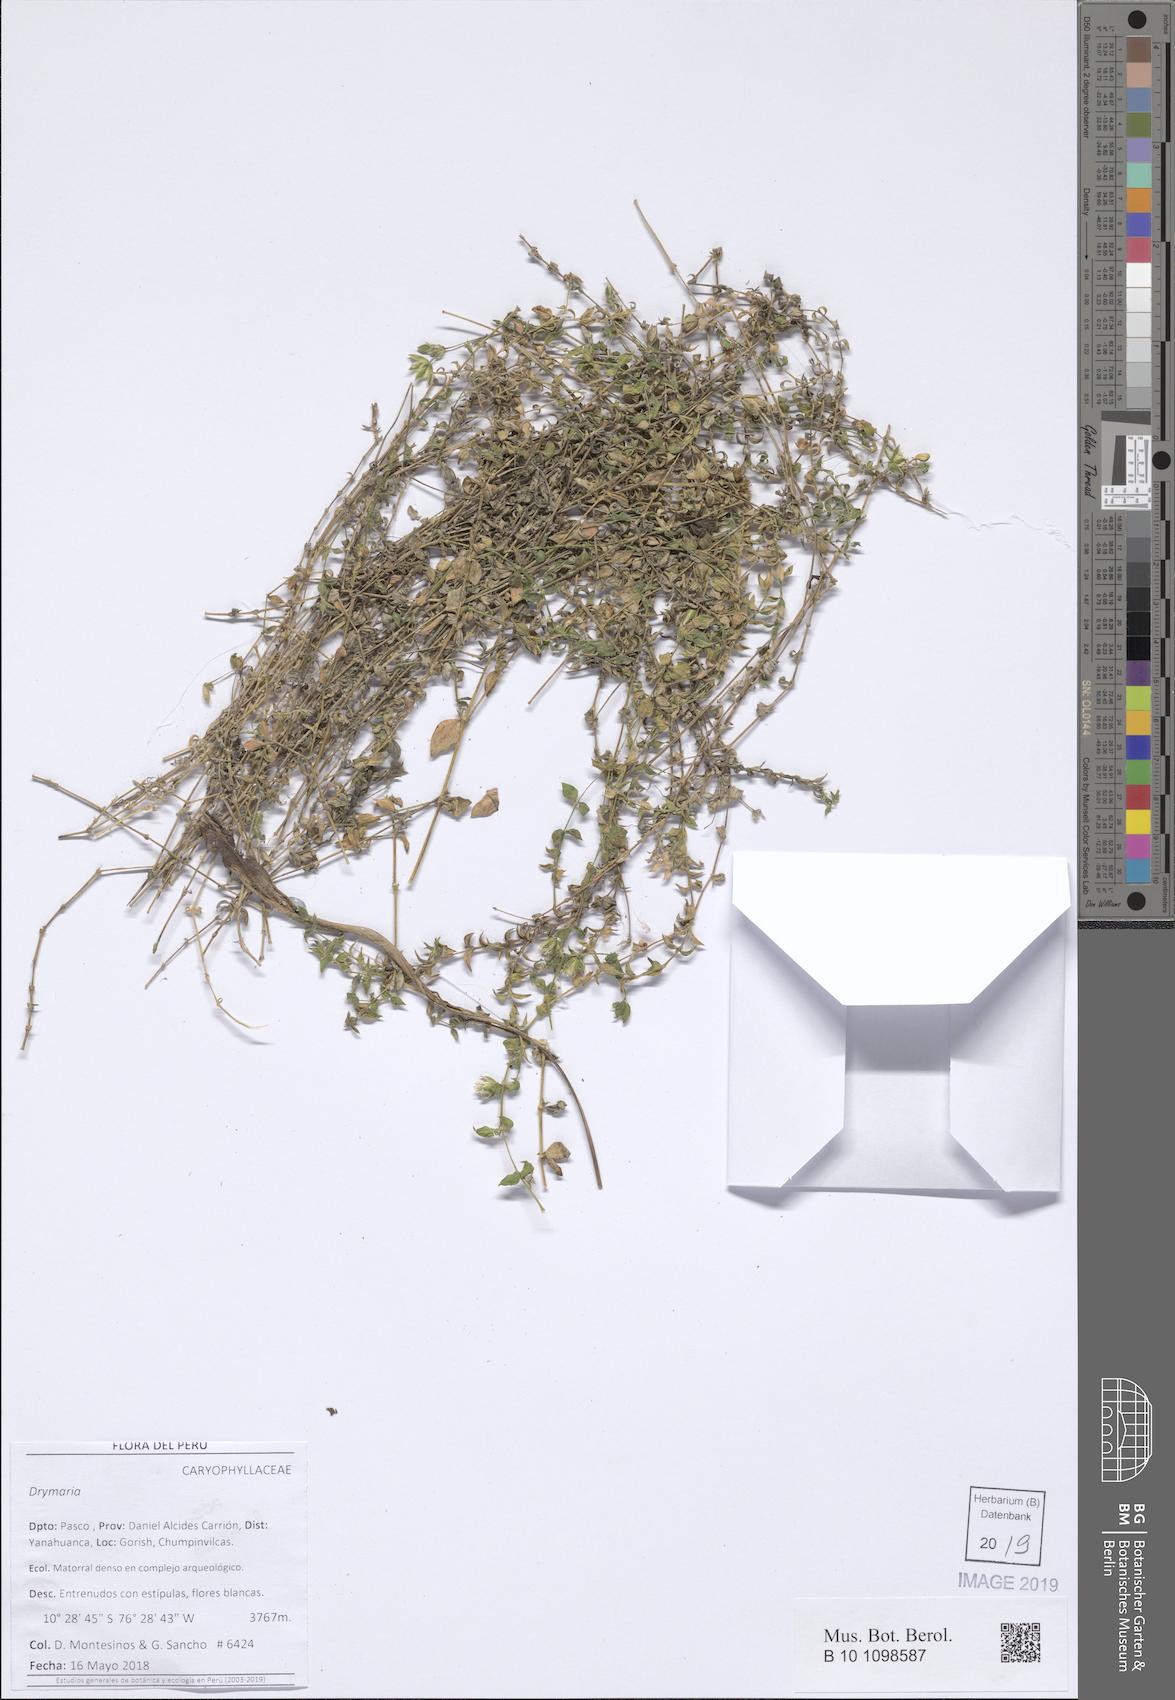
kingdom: Plantae
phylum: Tracheophyta
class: Magnoliopsida
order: Caryophyllales
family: Caryophyllaceae
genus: Drymaria
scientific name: Drymaria
